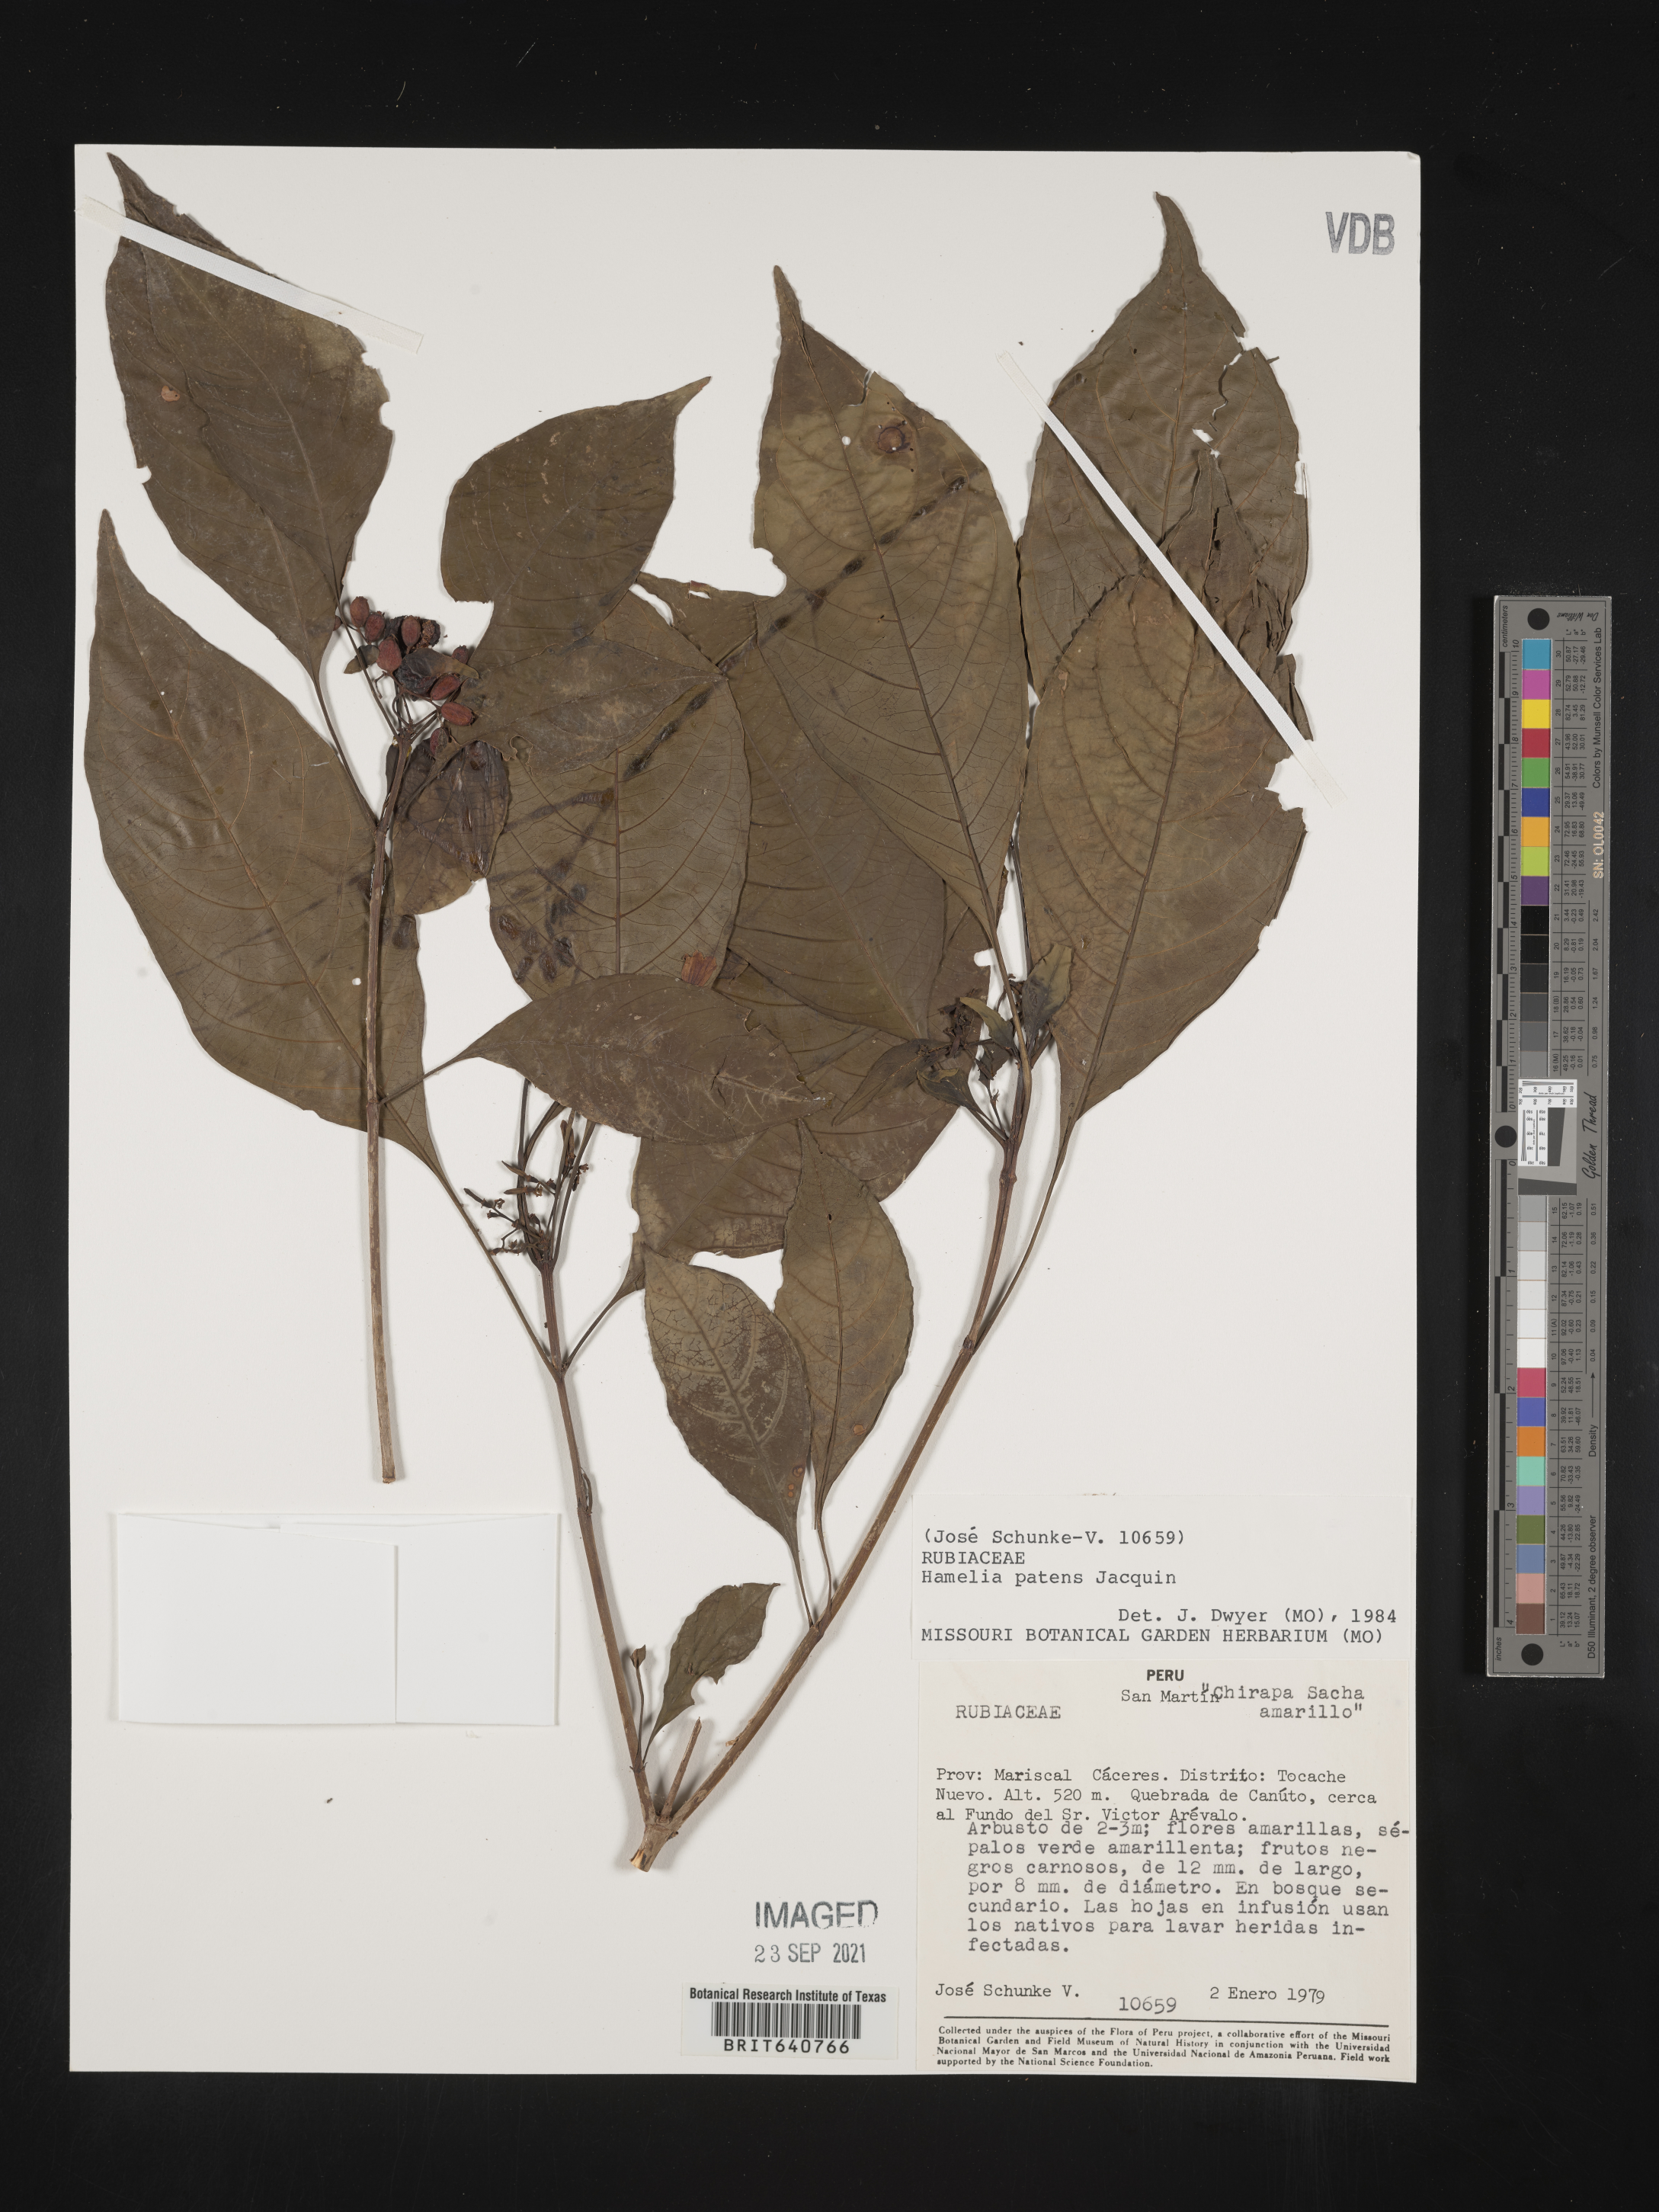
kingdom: Plantae
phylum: Tracheophyta
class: Magnoliopsida
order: Gentianales
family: Rubiaceae
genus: Hamelia
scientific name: Hamelia
